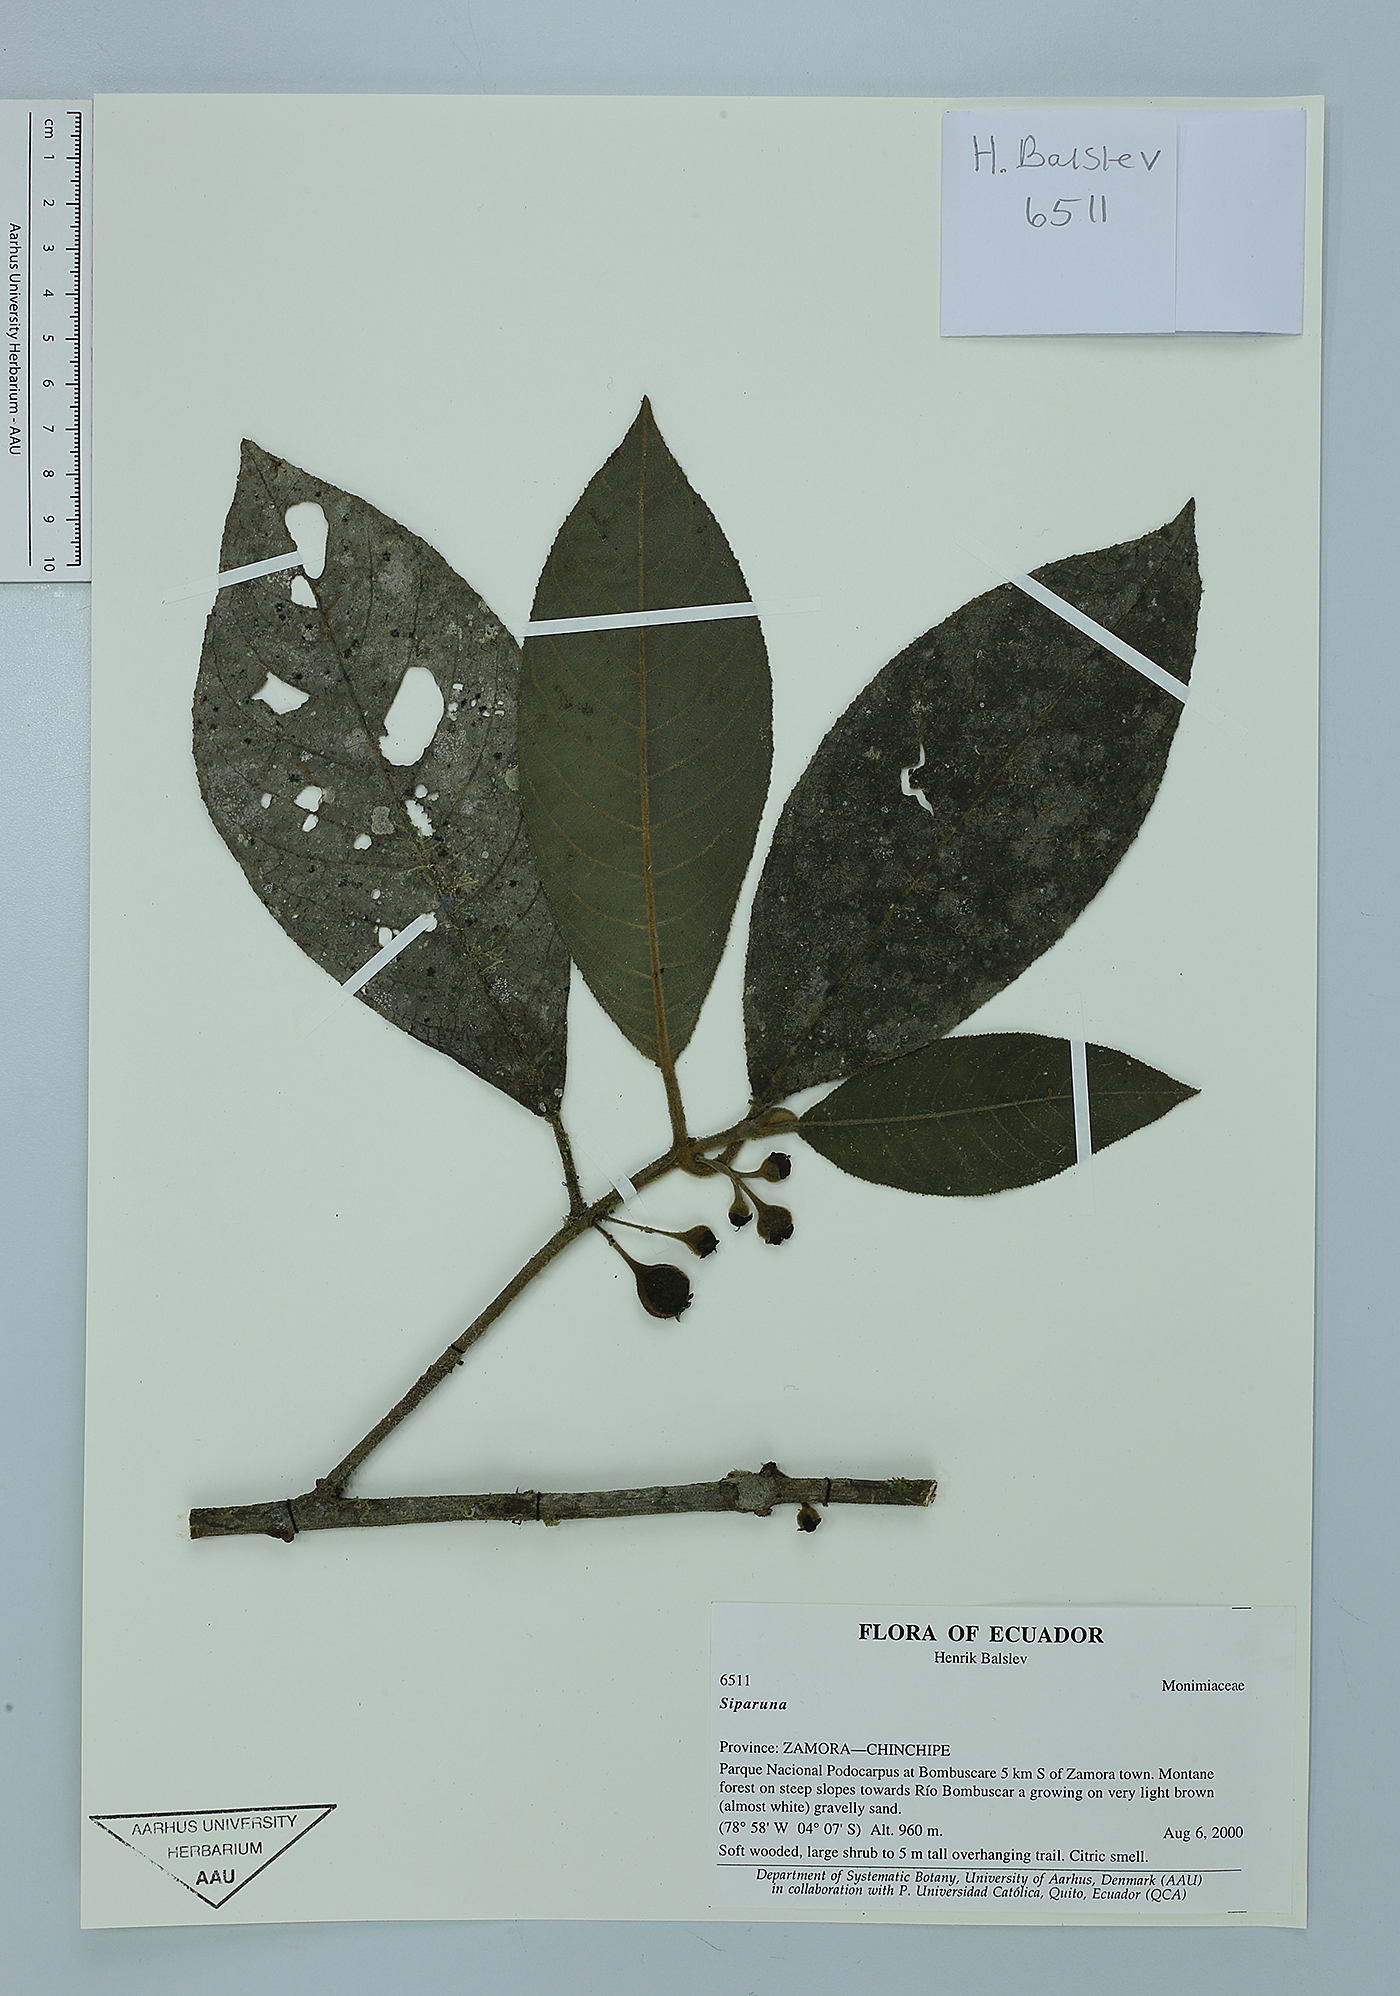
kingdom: Plantae
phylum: Tracheophyta
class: Magnoliopsida
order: Laurales
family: Siparunaceae
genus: Siparuna
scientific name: Siparuna schimpffii
